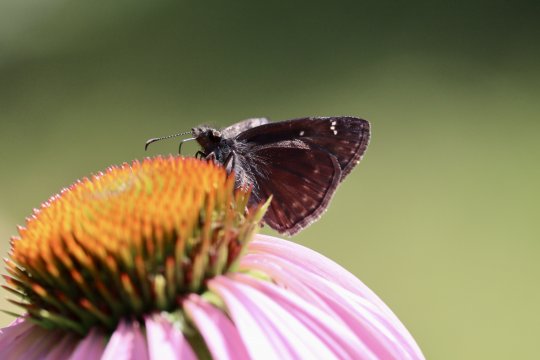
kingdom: Animalia
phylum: Arthropoda
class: Insecta
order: Lepidoptera
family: Hesperiidae
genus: Gesta
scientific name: Gesta
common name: Wild Indigo Duskywing
